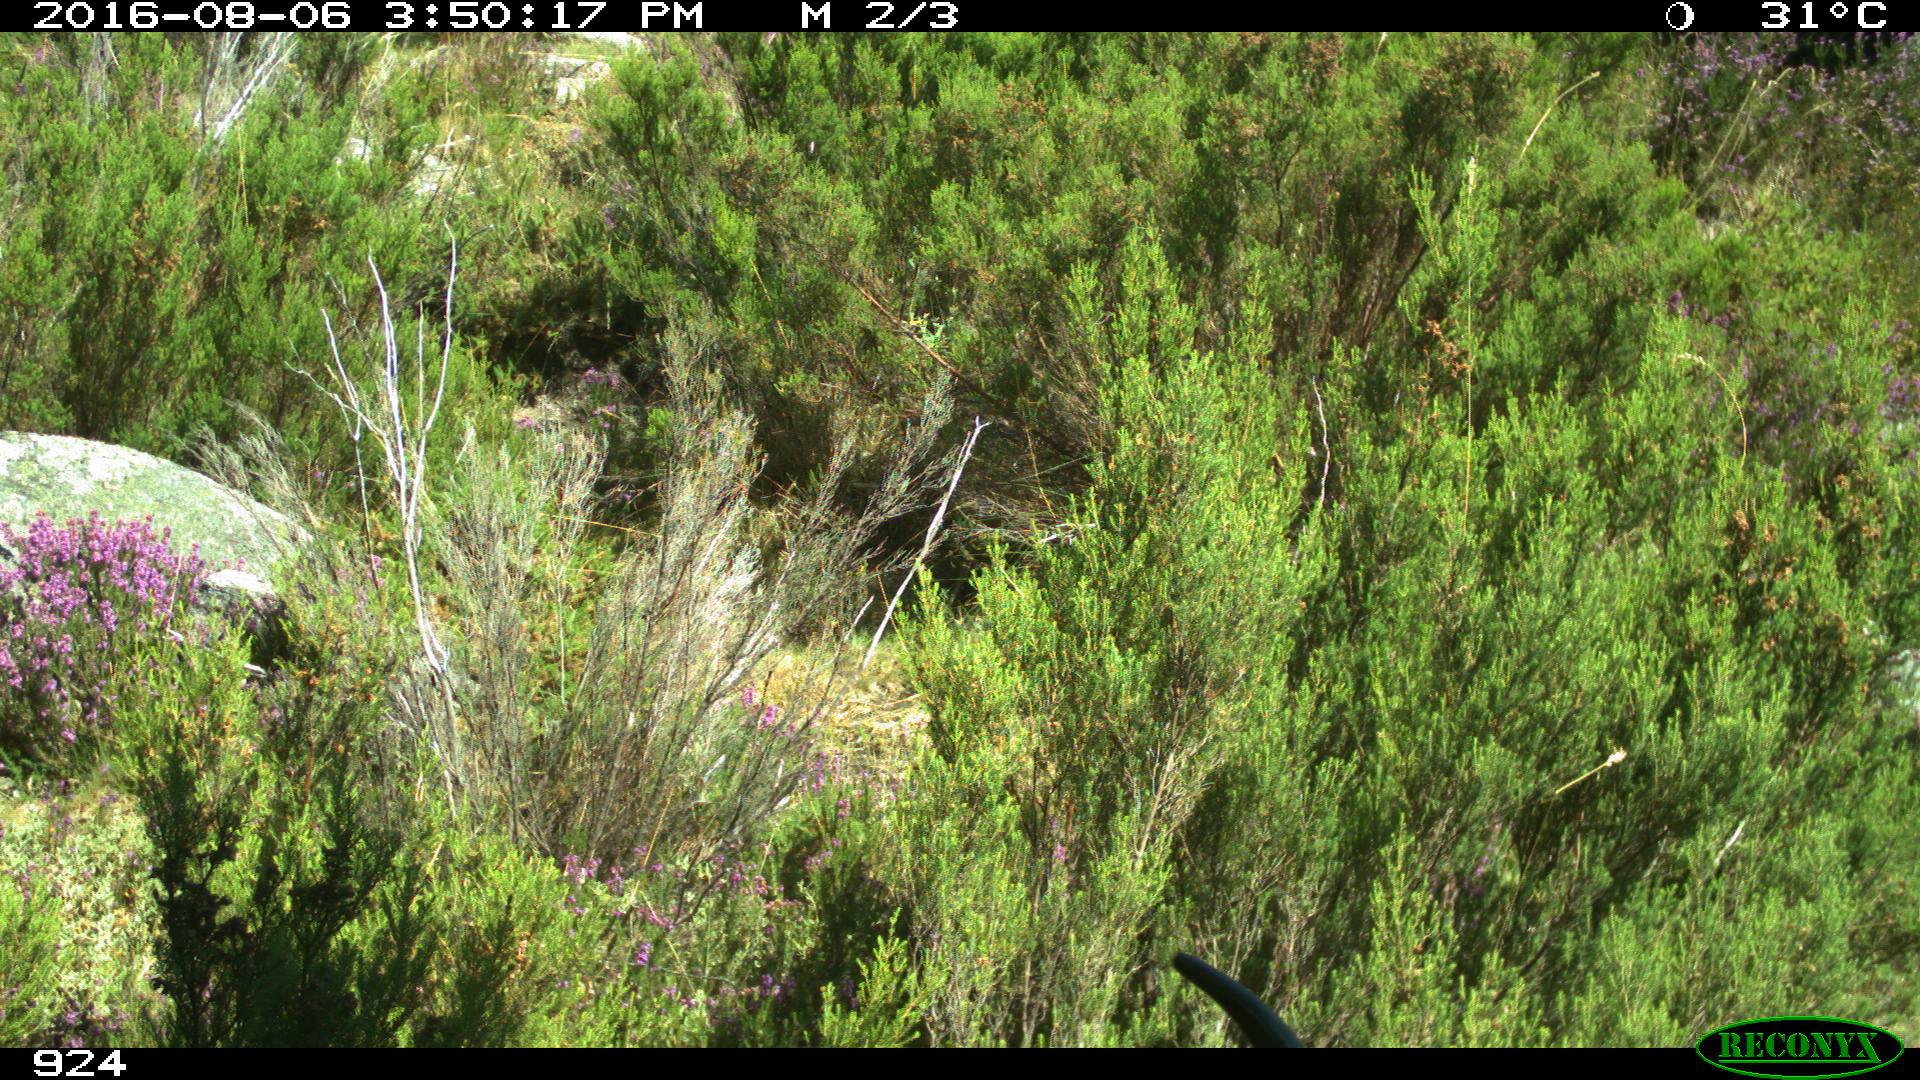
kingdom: Animalia
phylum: Chordata
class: Mammalia
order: Artiodactyla
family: Bovidae
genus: Bos
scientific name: Bos taurus
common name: Domesticated cattle
